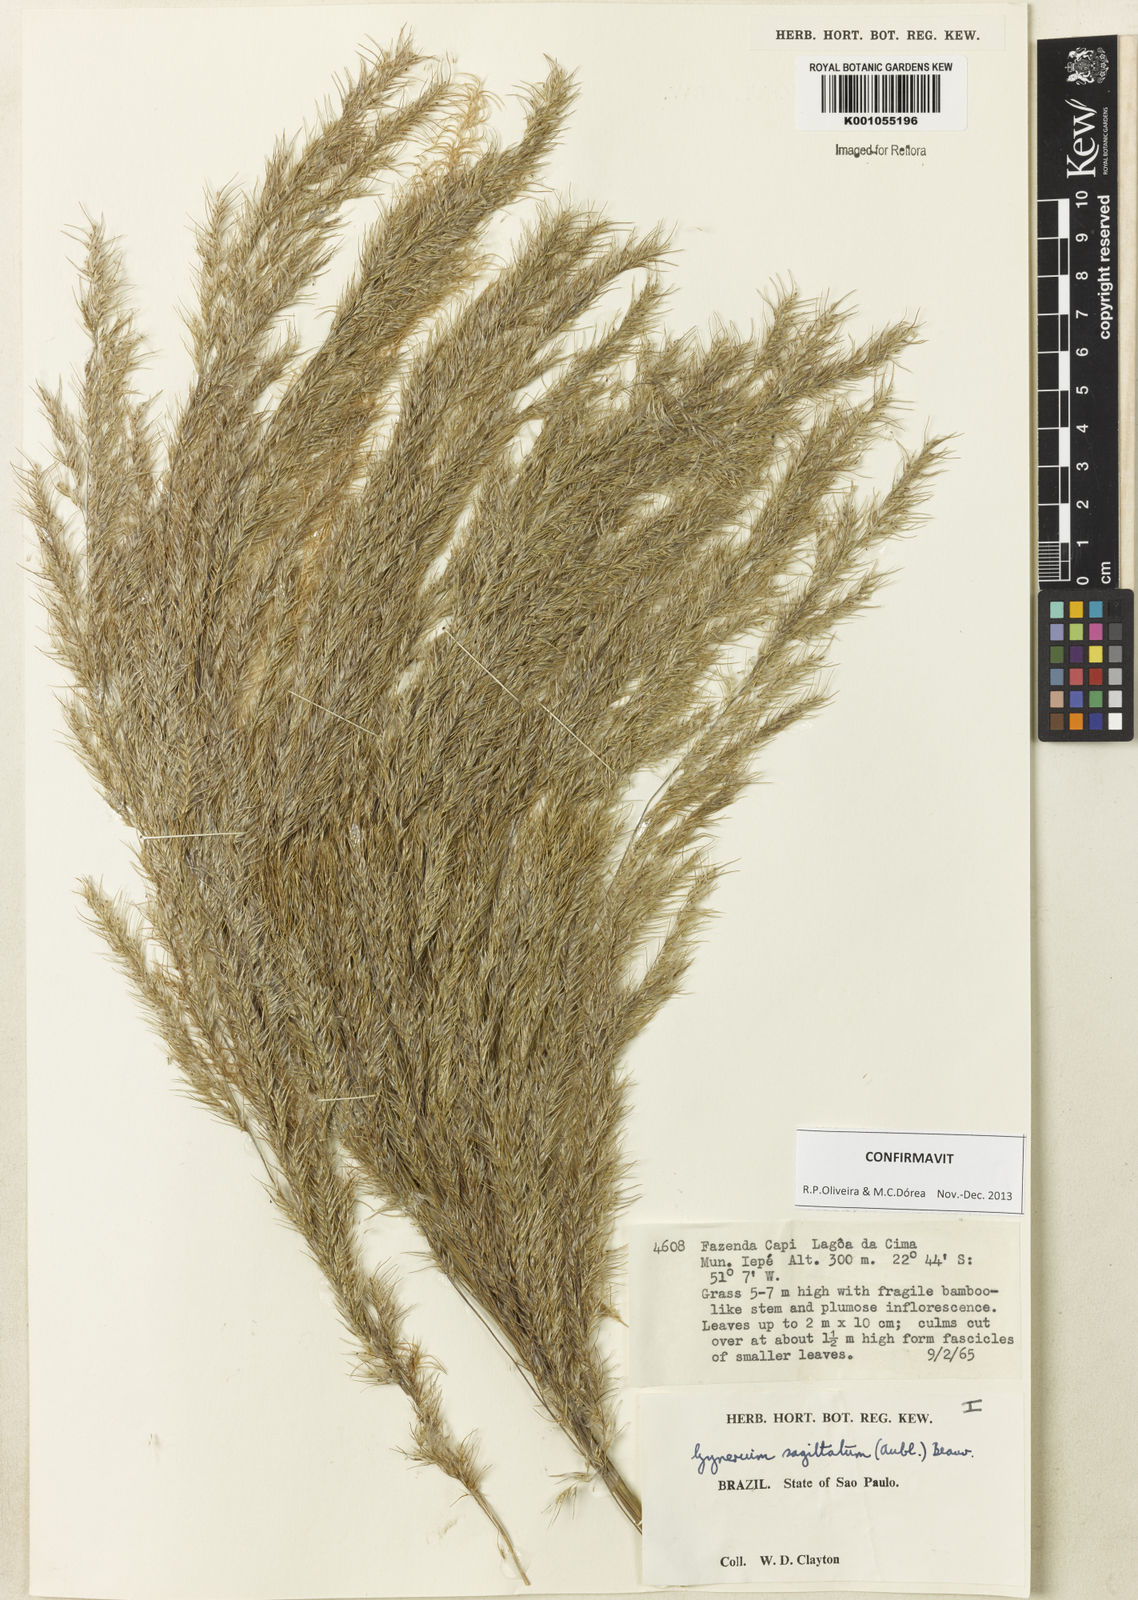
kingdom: Plantae
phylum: Tracheophyta
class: Liliopsida
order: Poales
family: Poaceae
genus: Gynerium
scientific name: Gynerium sagittatum
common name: Wild cane
